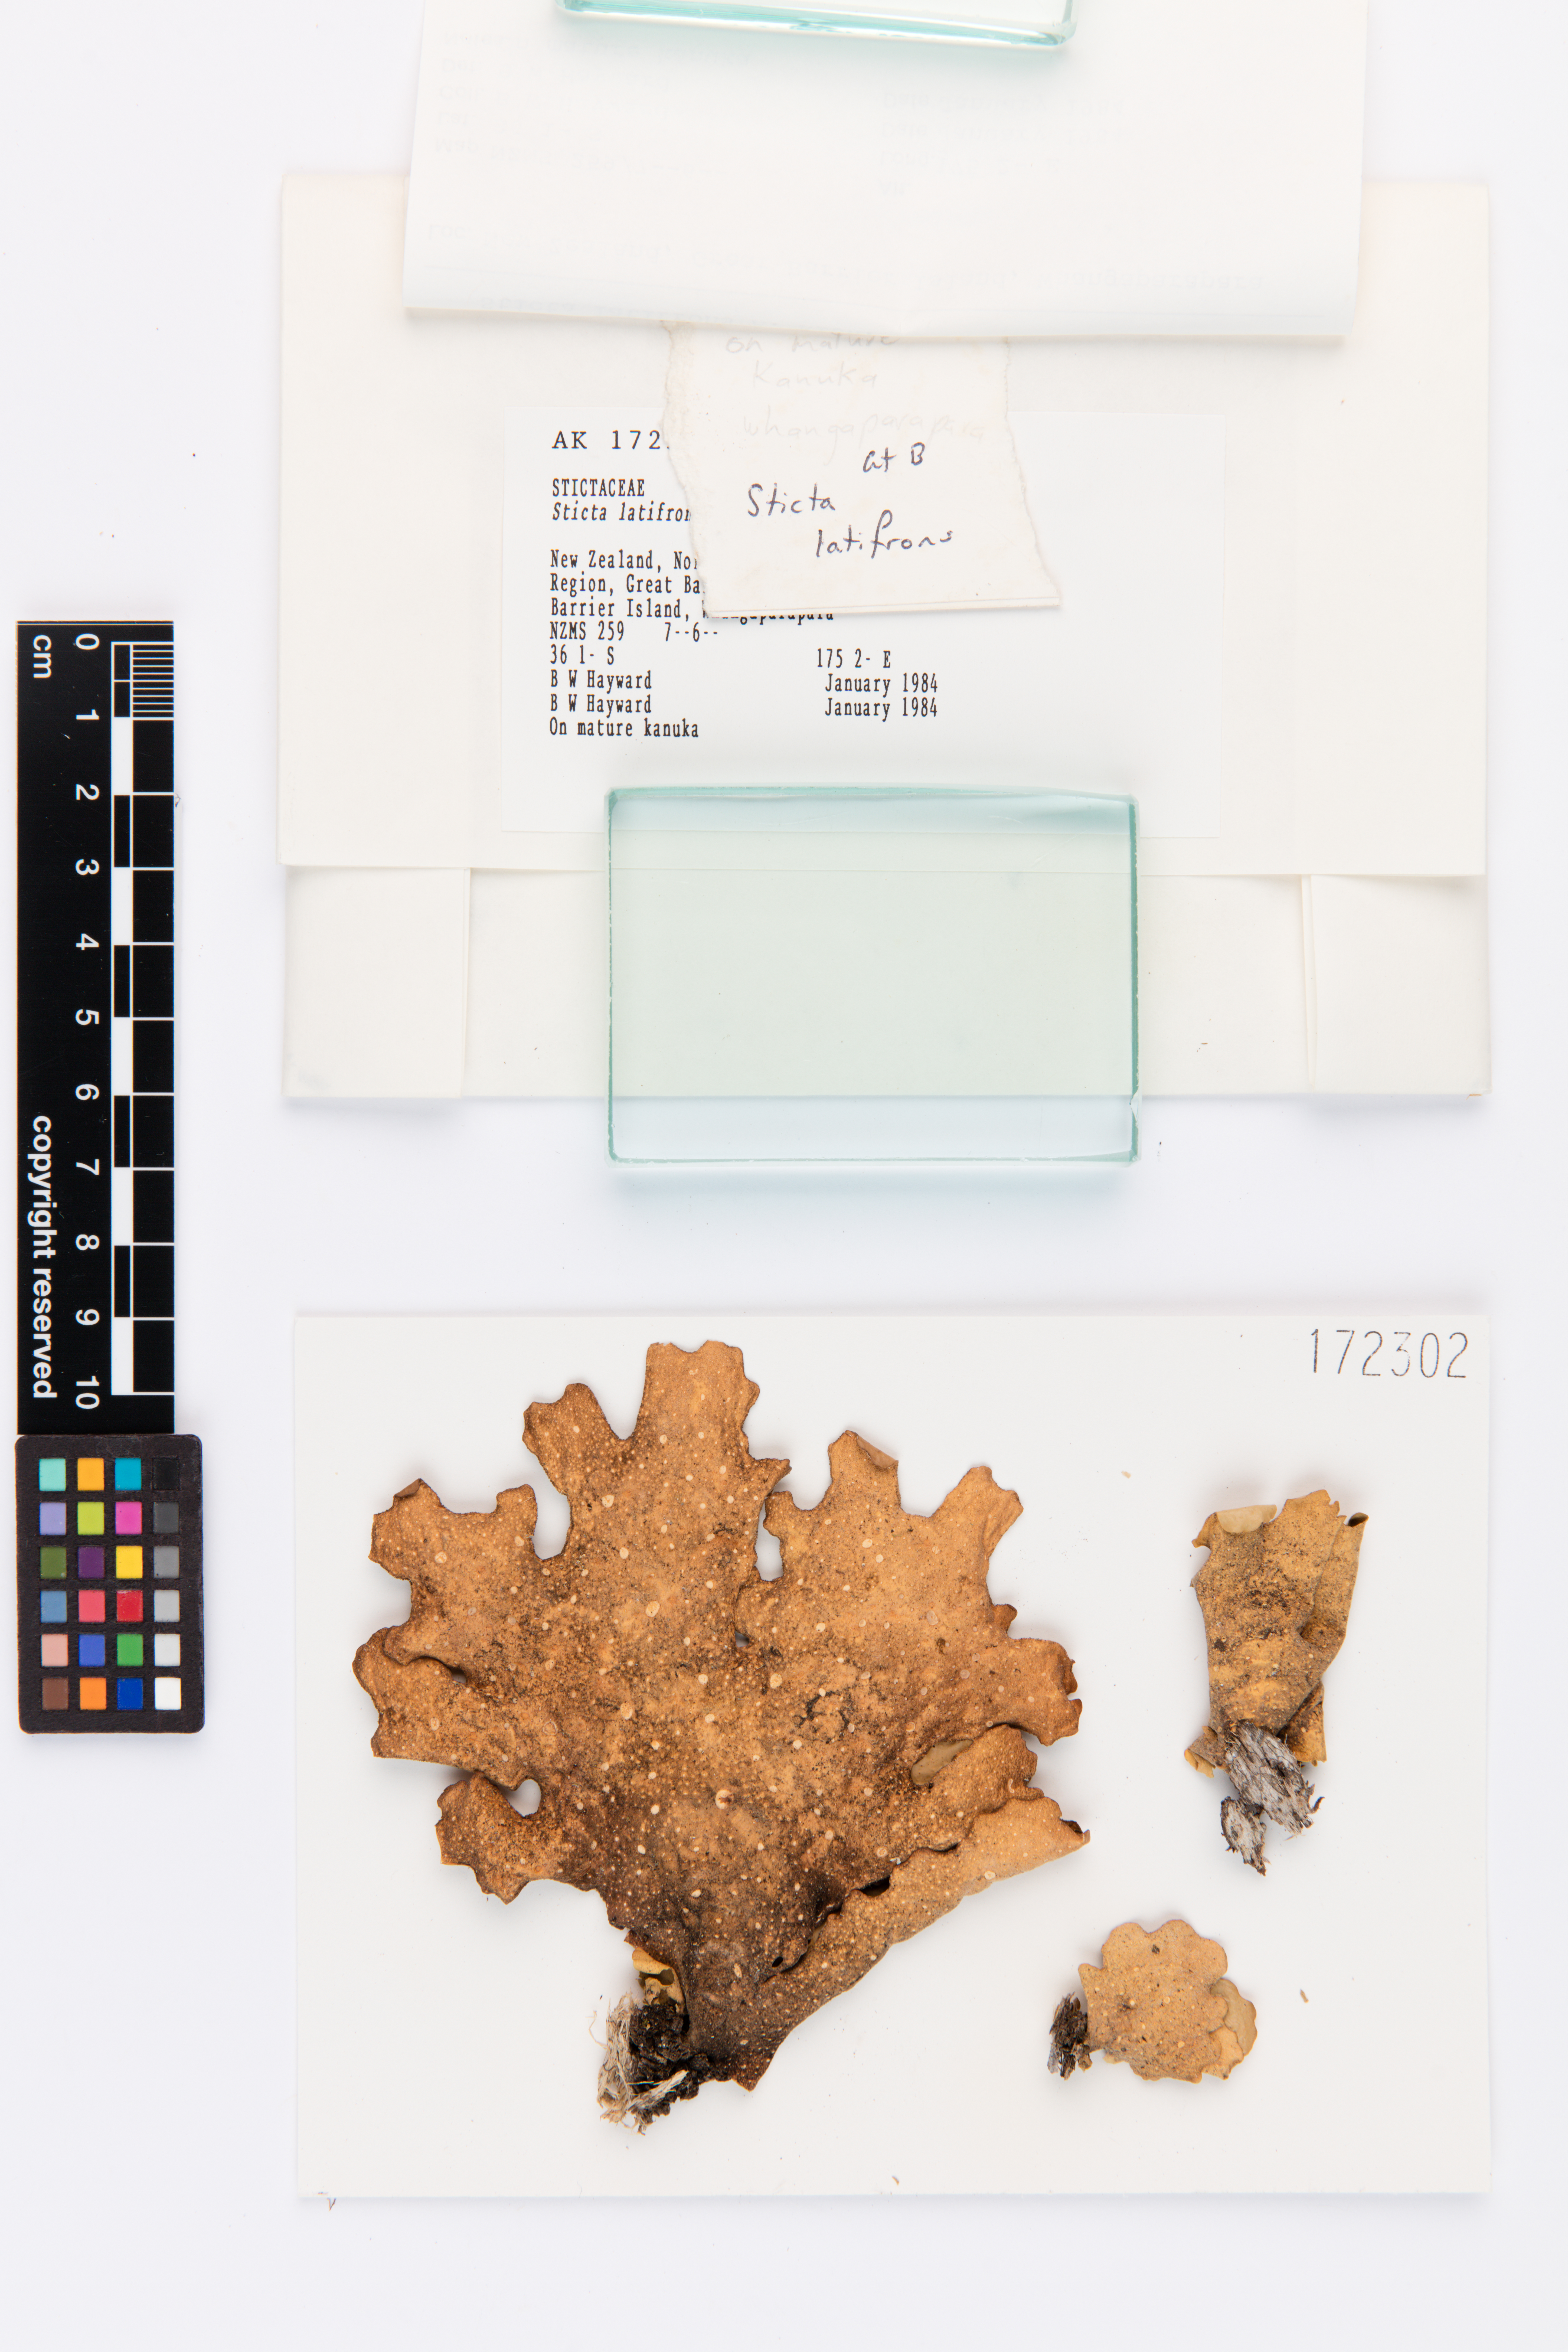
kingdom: Fungi
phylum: Ascomycota
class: Lecanoromycetes
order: Peltigerales
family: Lobariaceae
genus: Sticta
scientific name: Sticta latifrons
